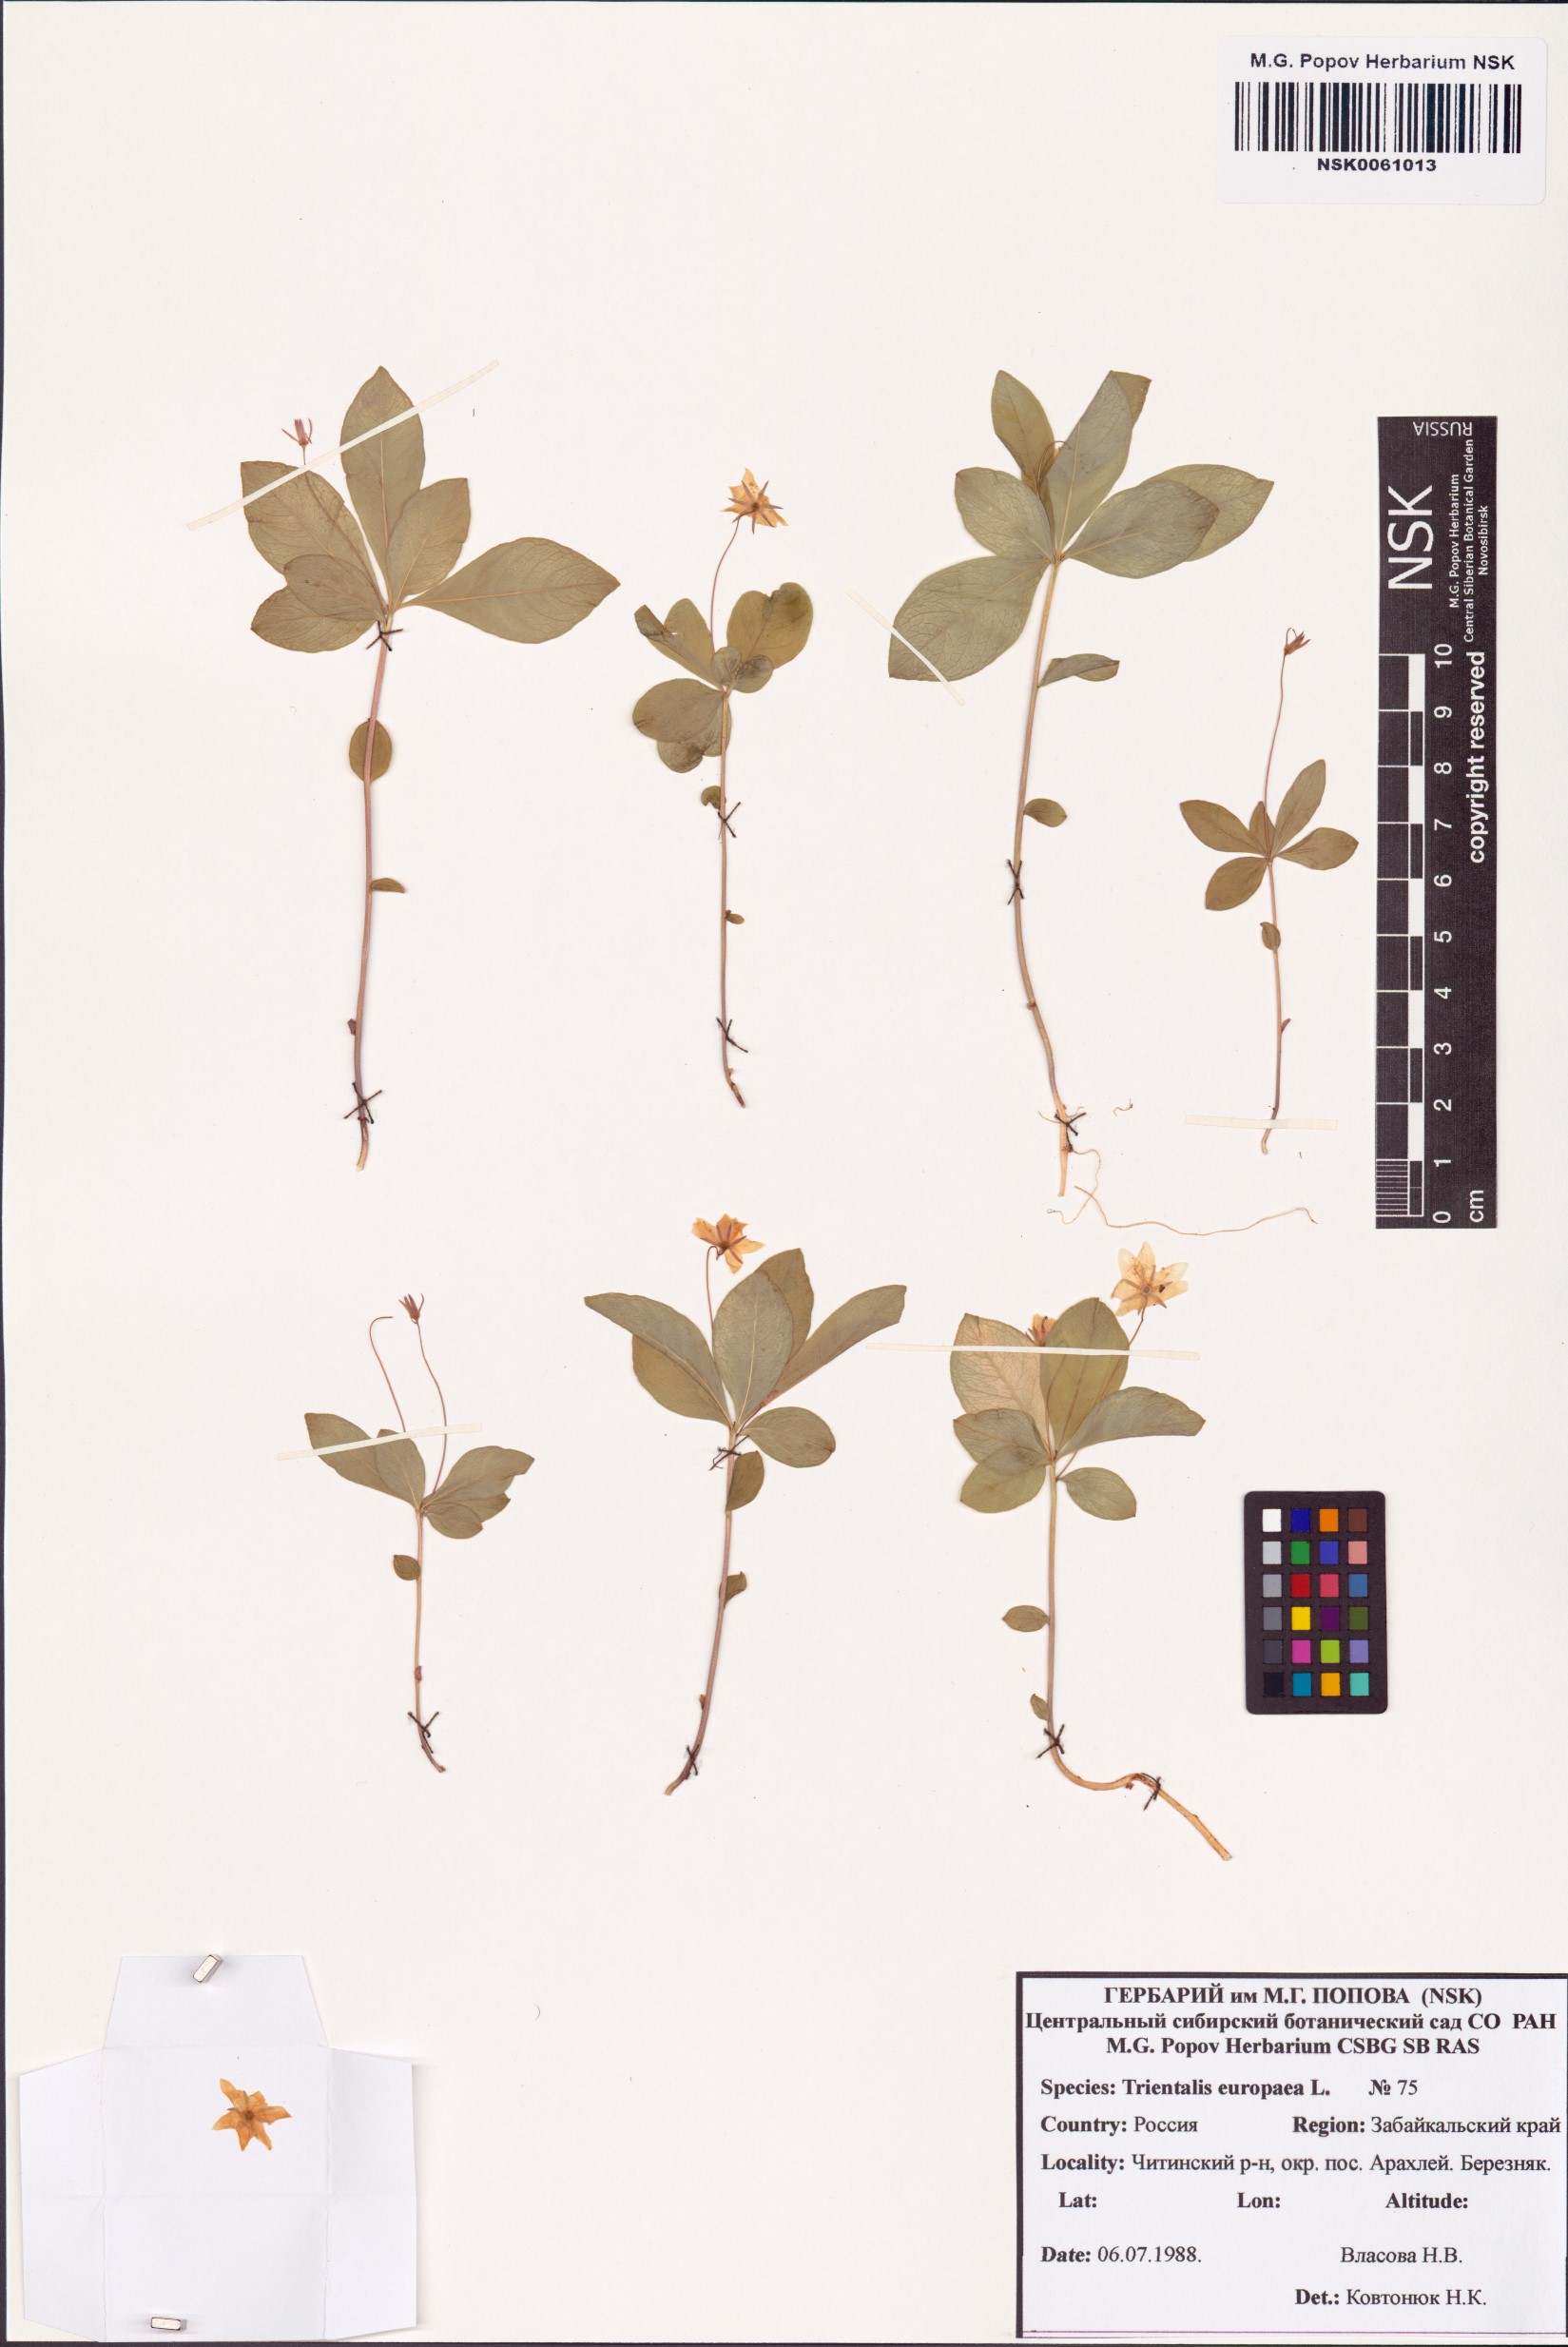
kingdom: Plantae
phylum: Tracheophyta
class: Magnoliopsida
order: Ericales
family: Primulaceae
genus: Lysimachia
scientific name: Lysimachia europaea
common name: Arctic starflower
